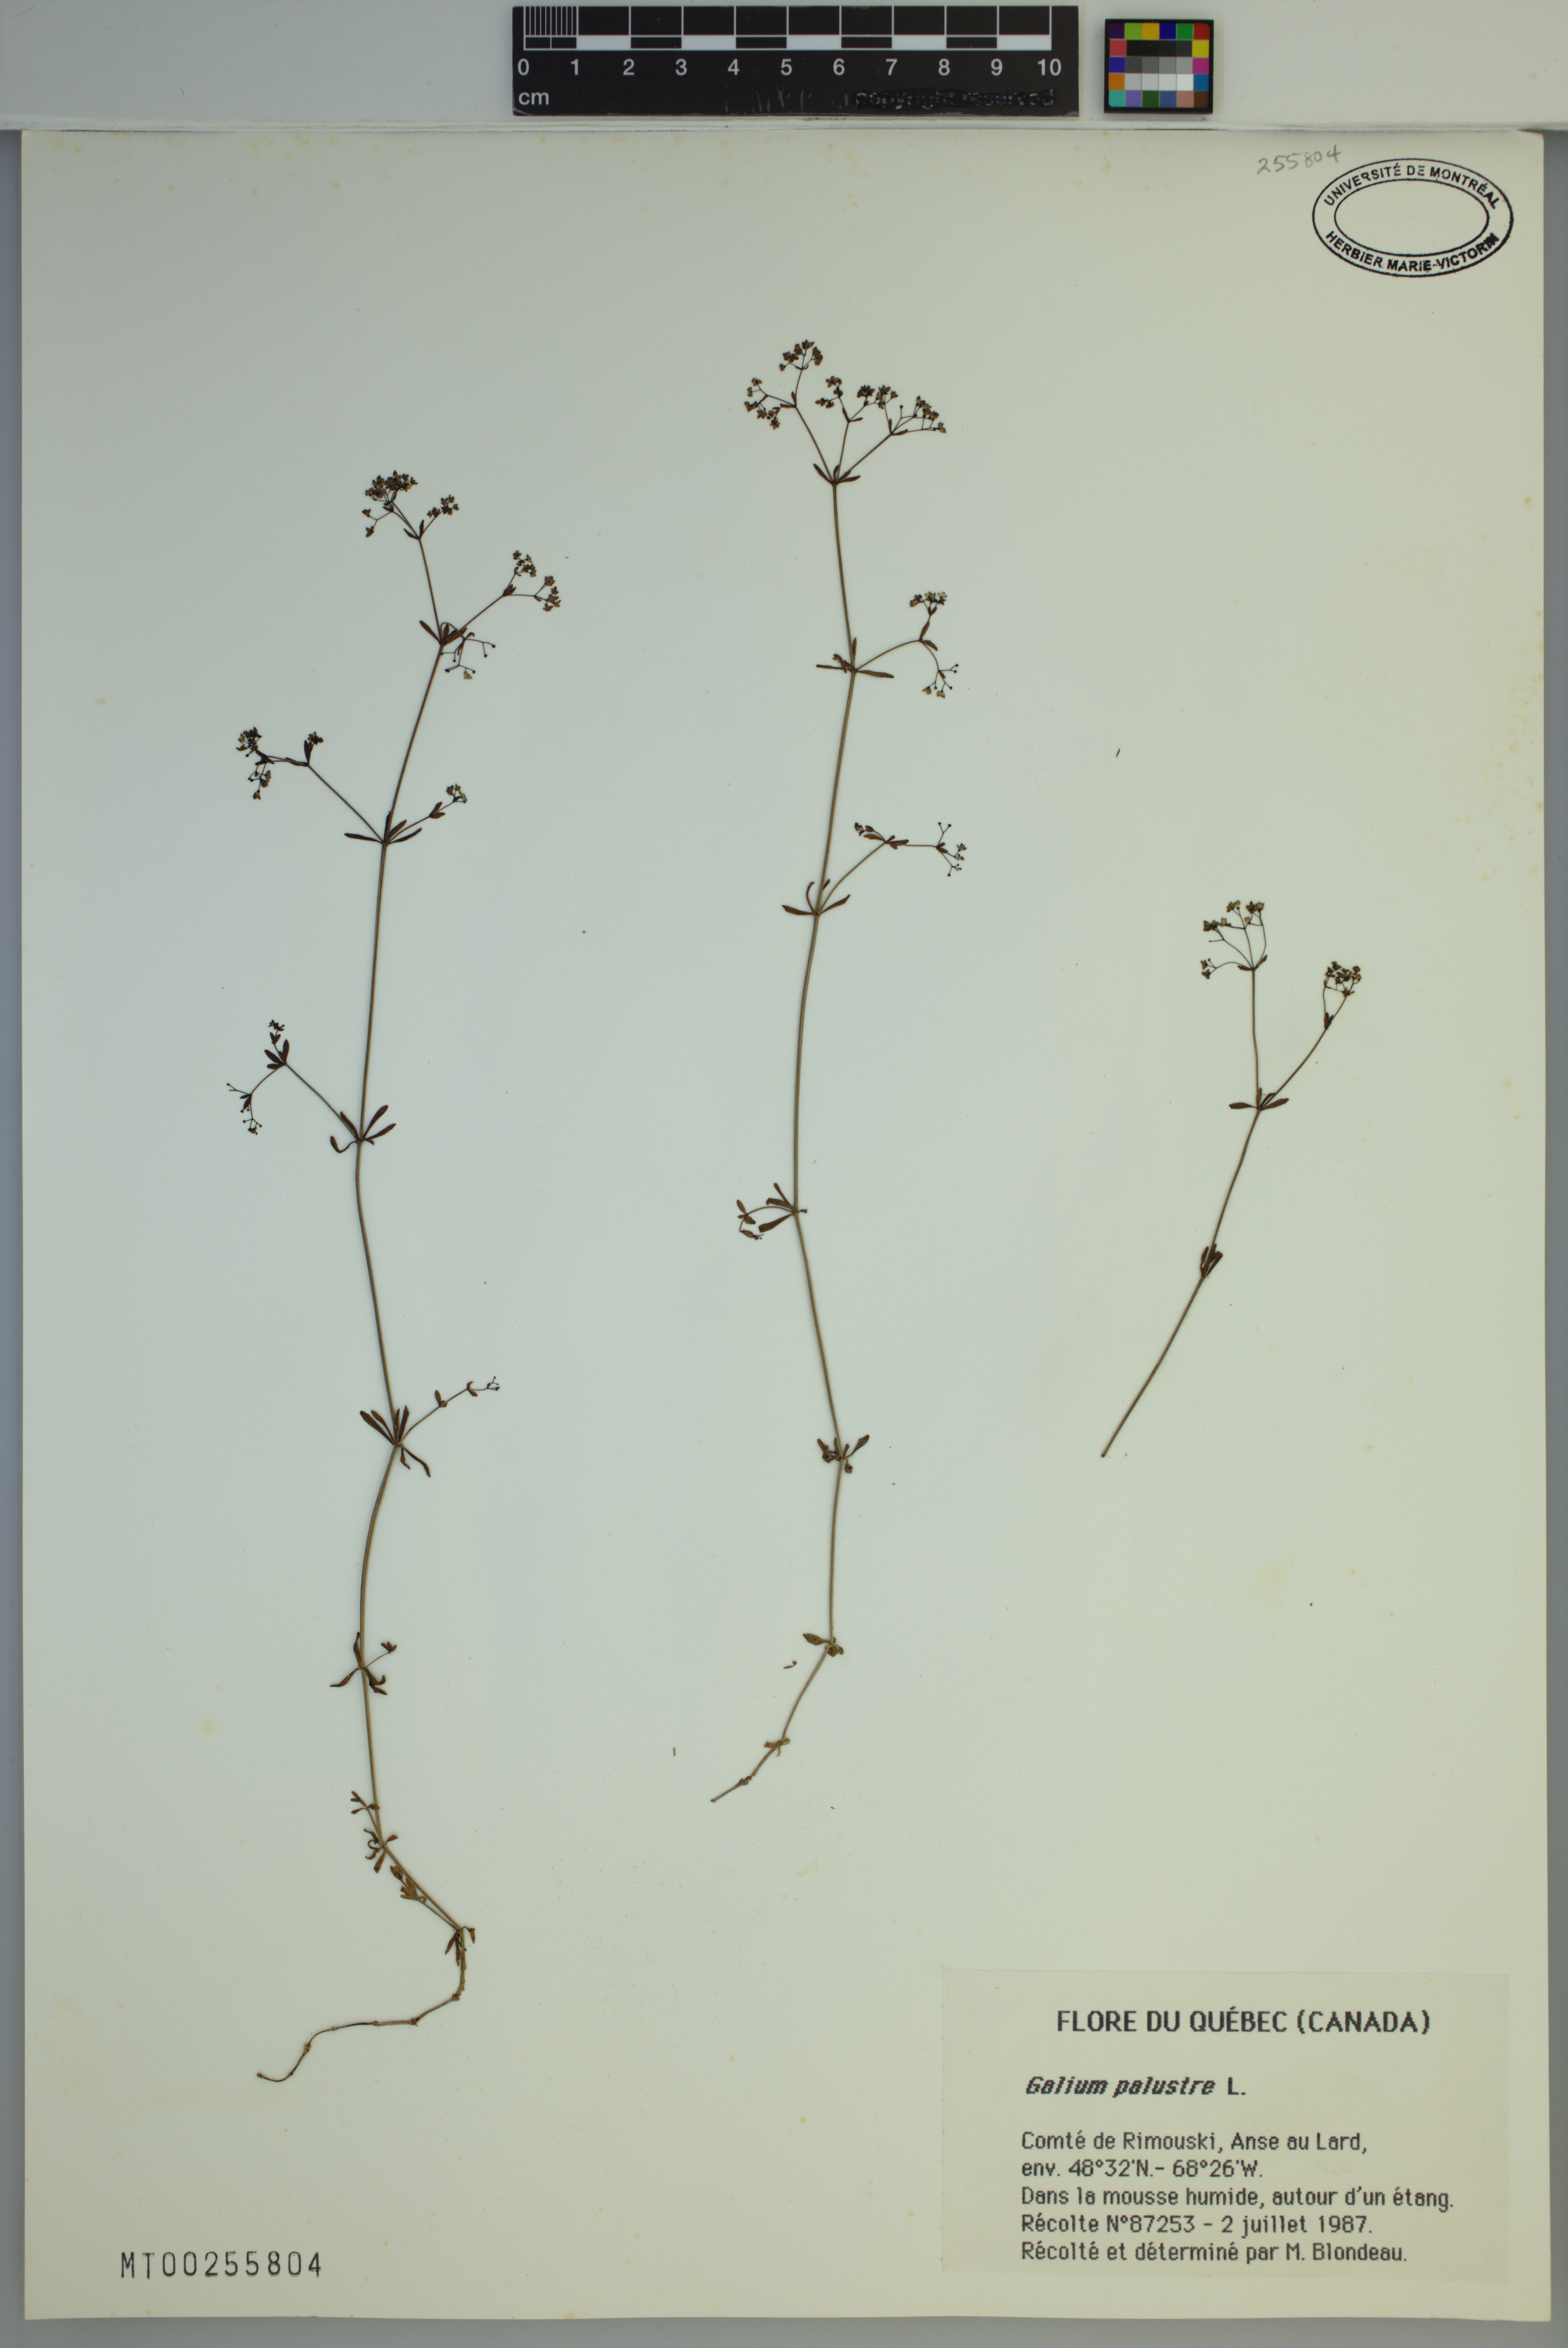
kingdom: Plantae
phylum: Tracheophyta
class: Magnoliopsida
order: Gentianales
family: Rubiaceae
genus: Galium
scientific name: Galium palustre
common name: Common marsh-bedstraw
